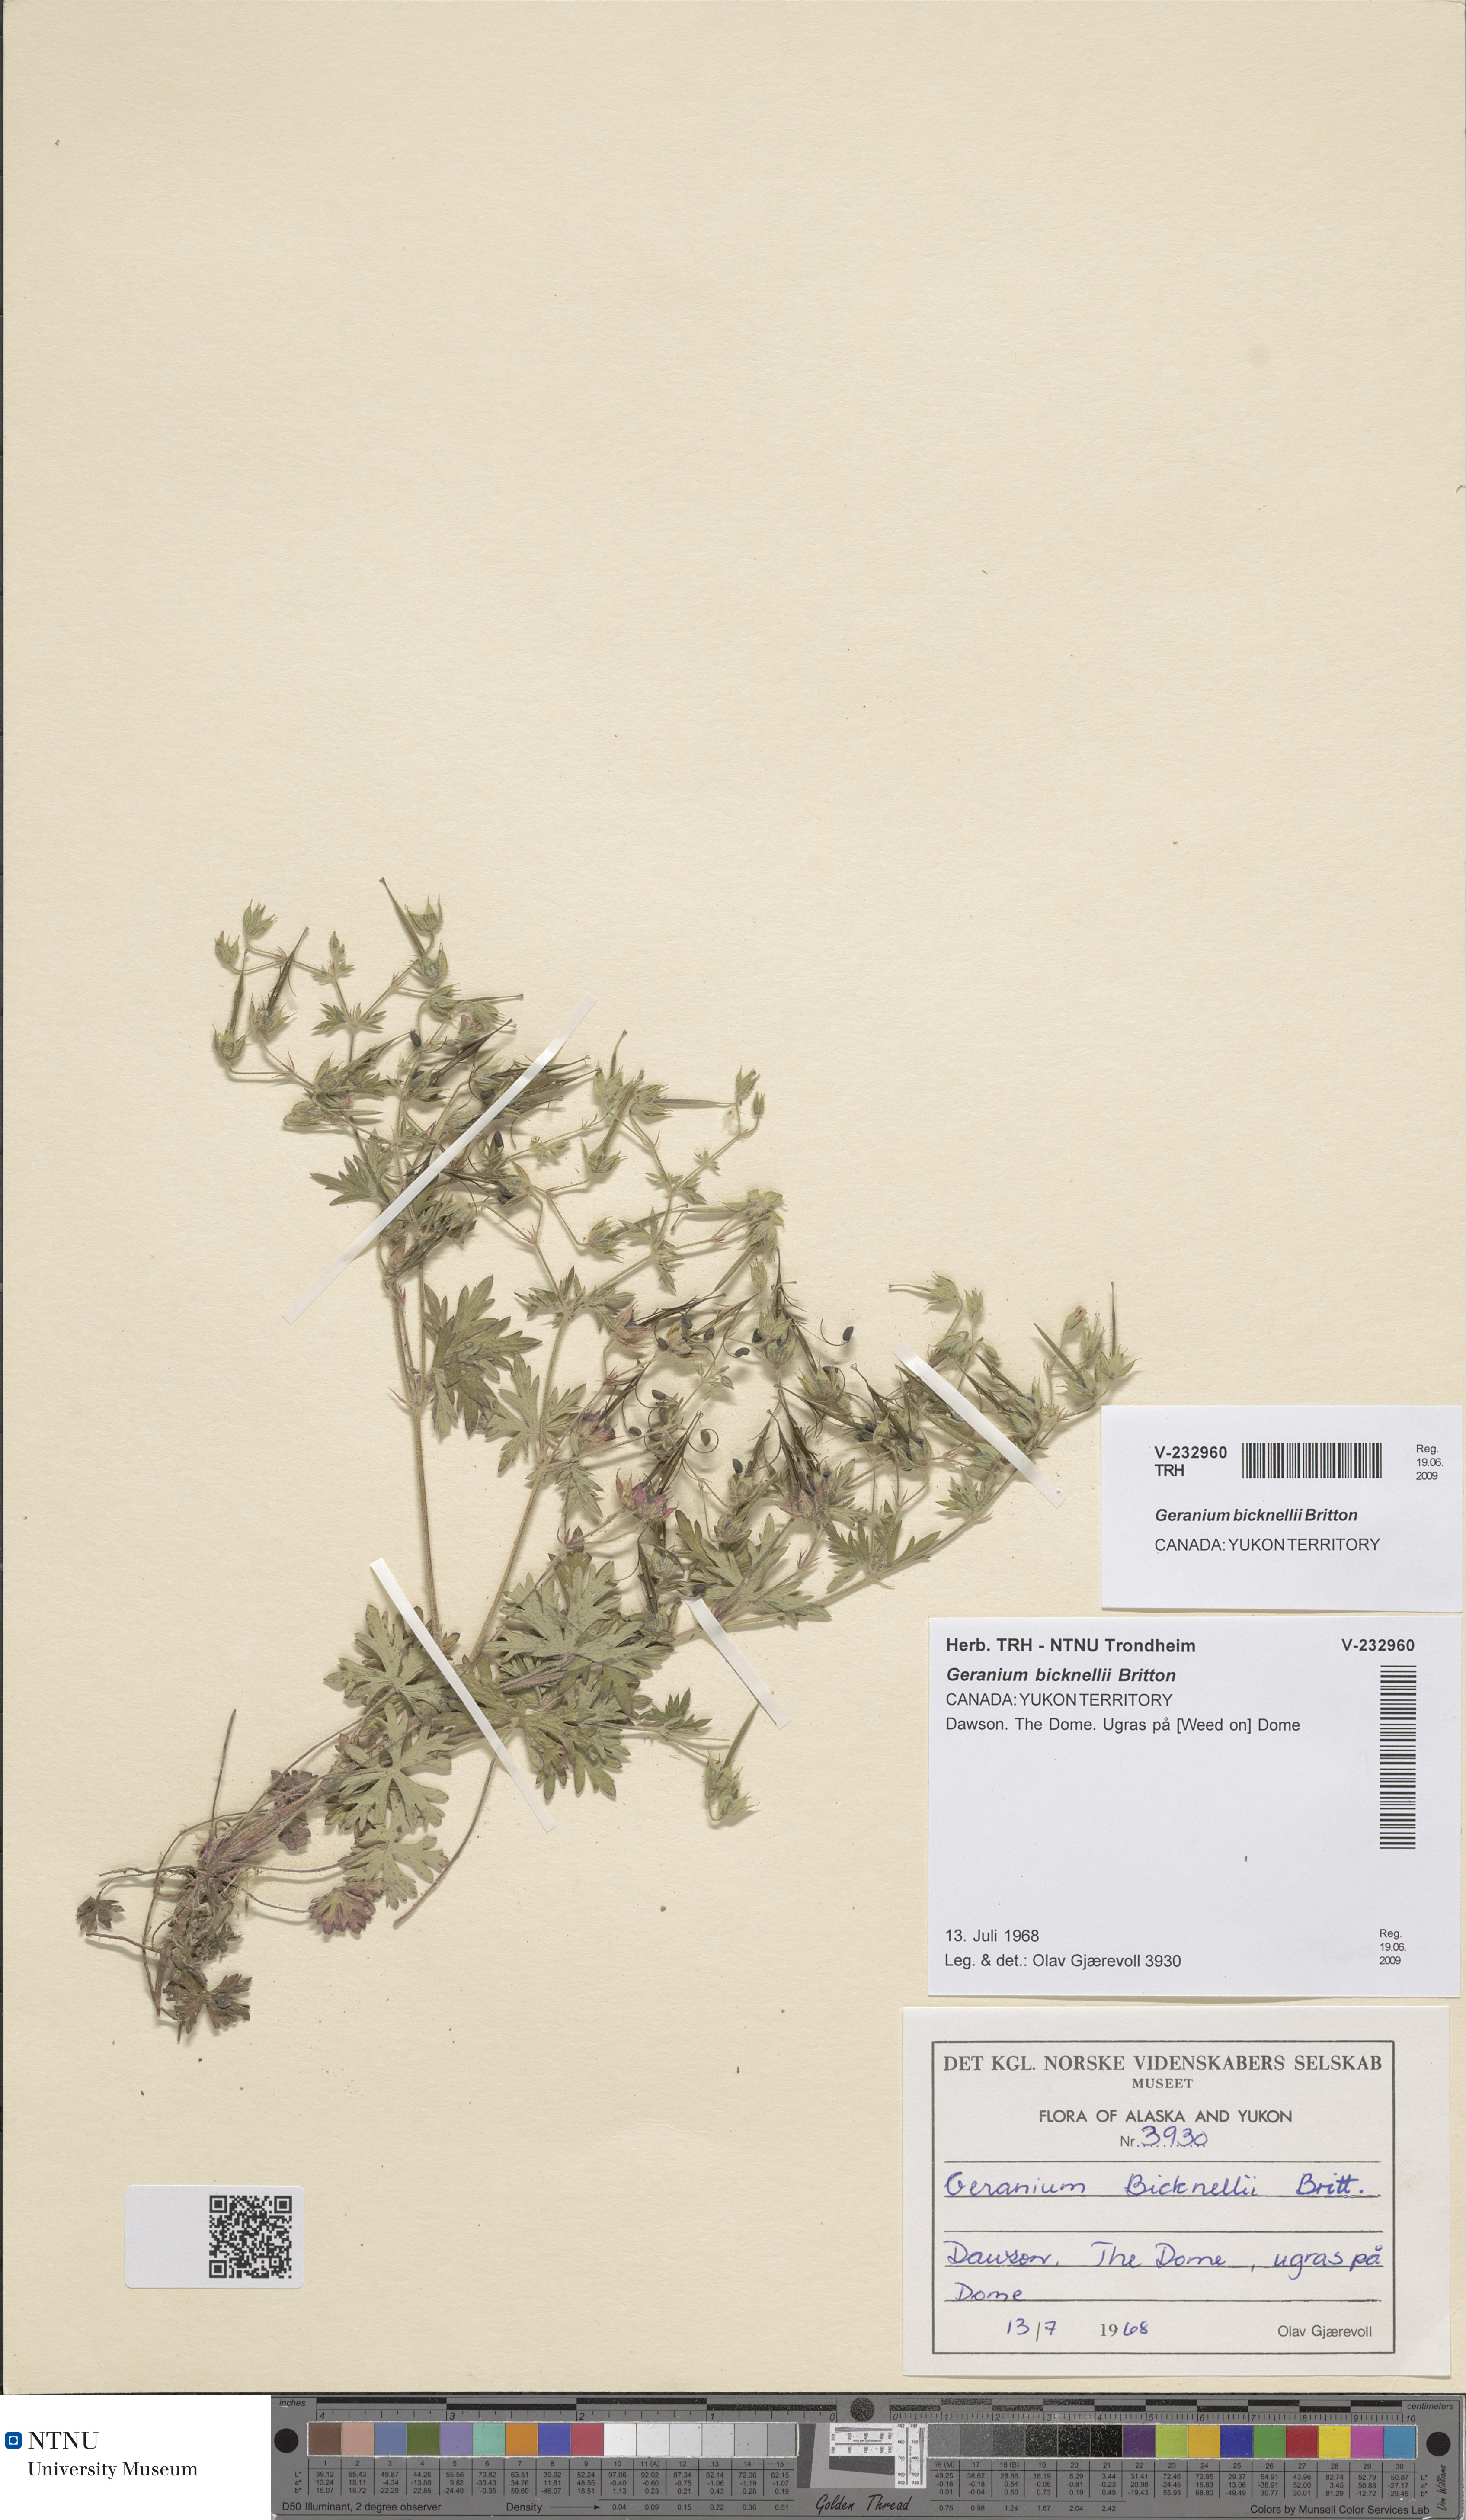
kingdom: Plantae
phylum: Tracheophyta
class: Magnoliopsida
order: Geraniales
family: Geraniaceae
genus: Geranium
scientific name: Geranium bicknellii
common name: Bicknell's cranesbill
